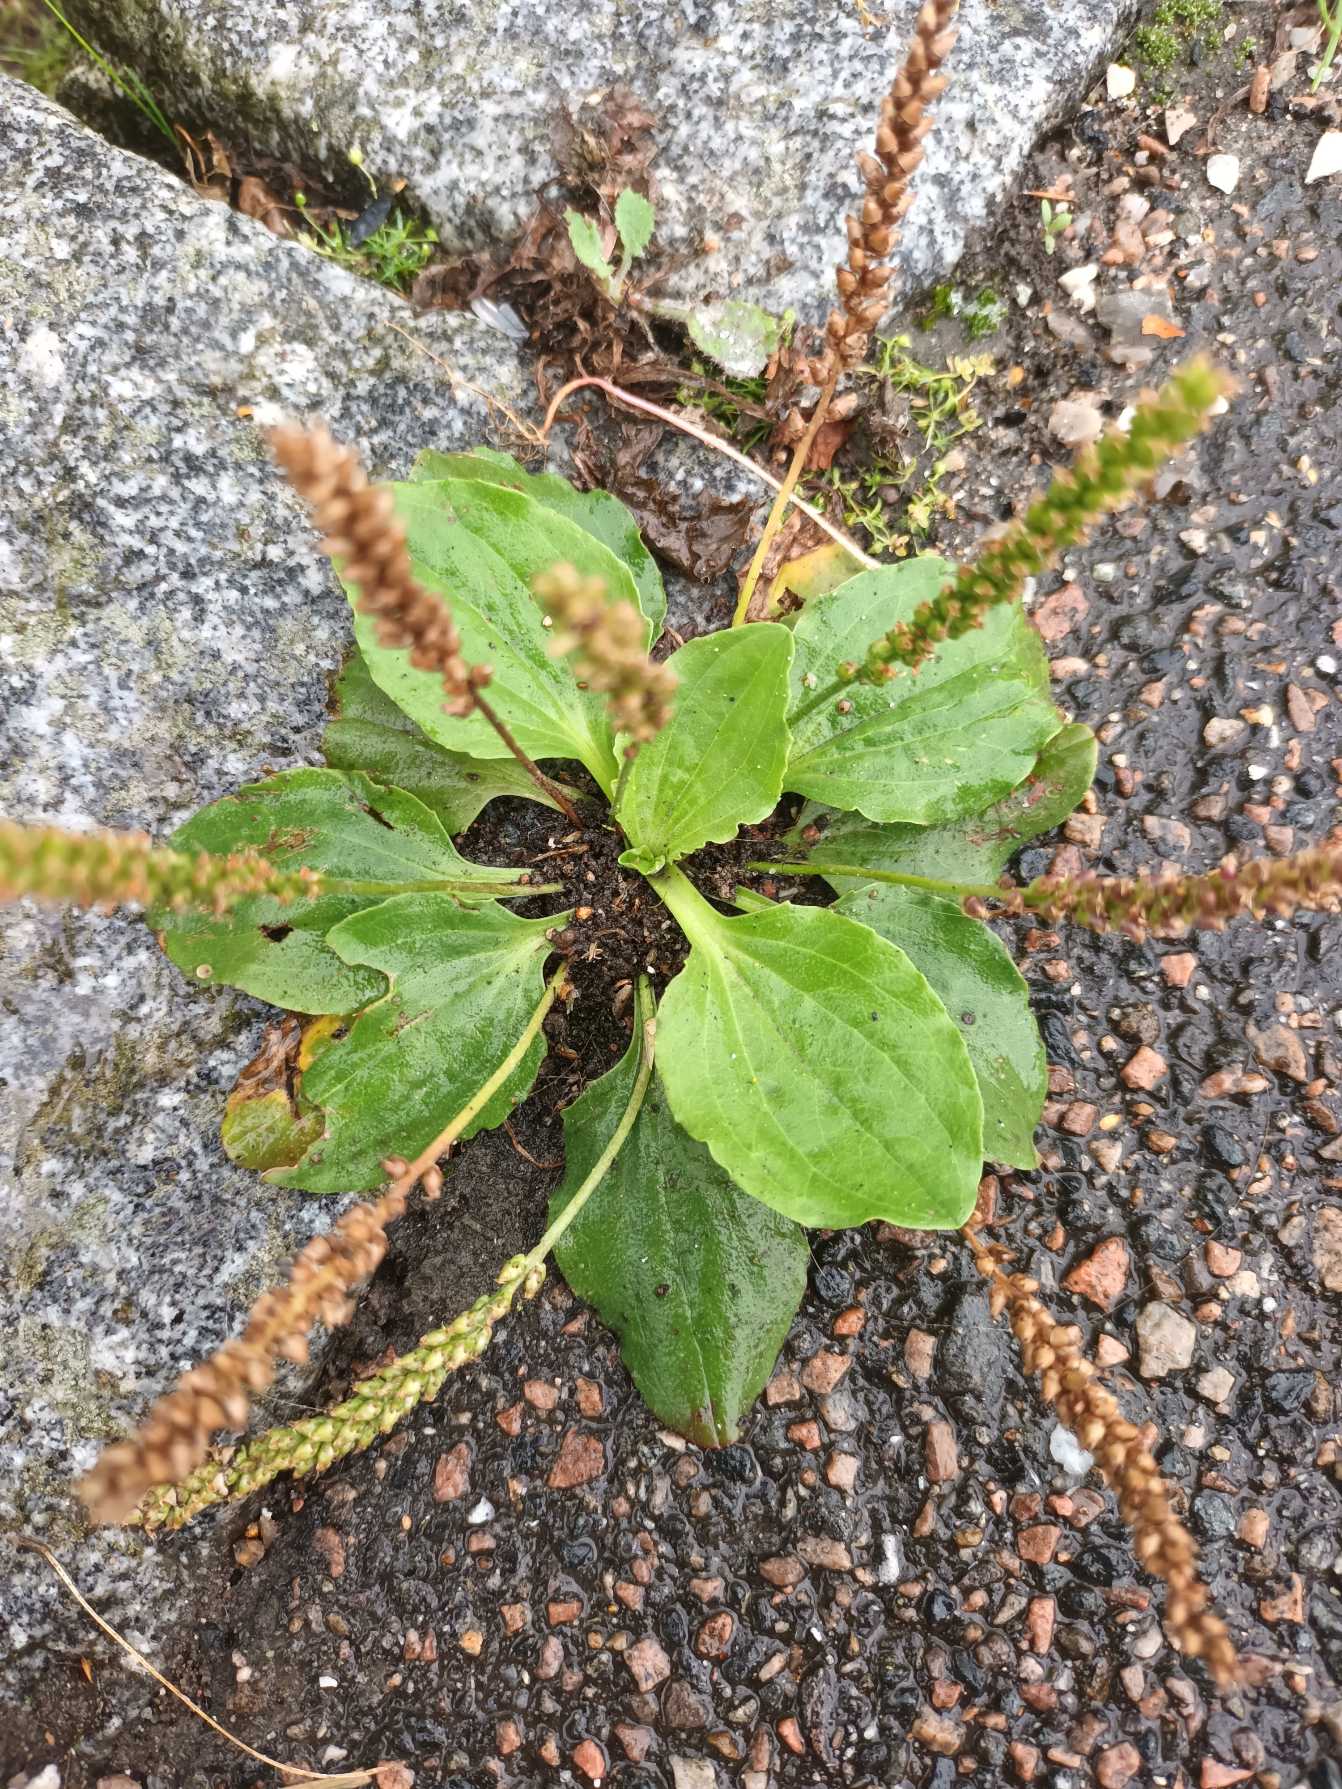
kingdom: Plantae
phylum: Tracheophyta
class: Magnoliopsida
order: Lamiales
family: Plantaginaceae
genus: Plantago
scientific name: Plantago major
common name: Glat vejbred
